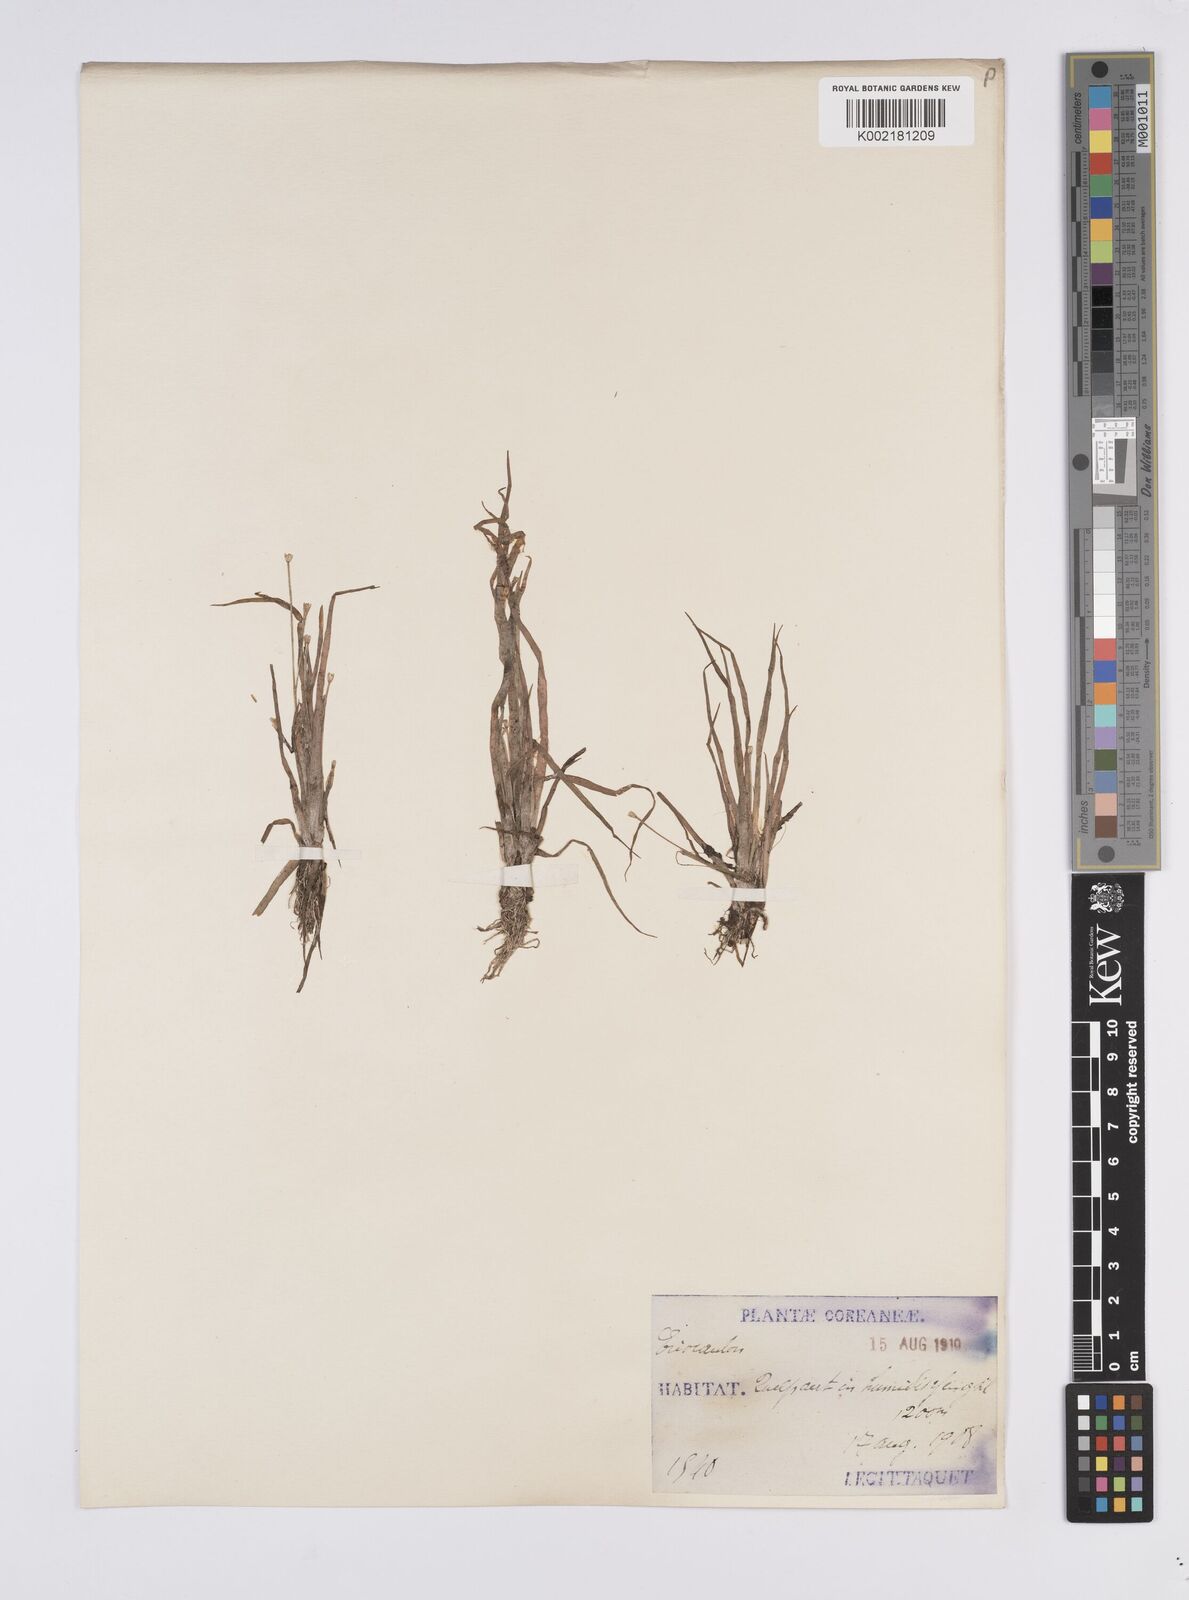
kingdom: Plantae
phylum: Tracheophyta
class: Liliopsida
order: Poales
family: Eriocaulaceae
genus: Eriocaulon
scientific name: Eriocaulon
